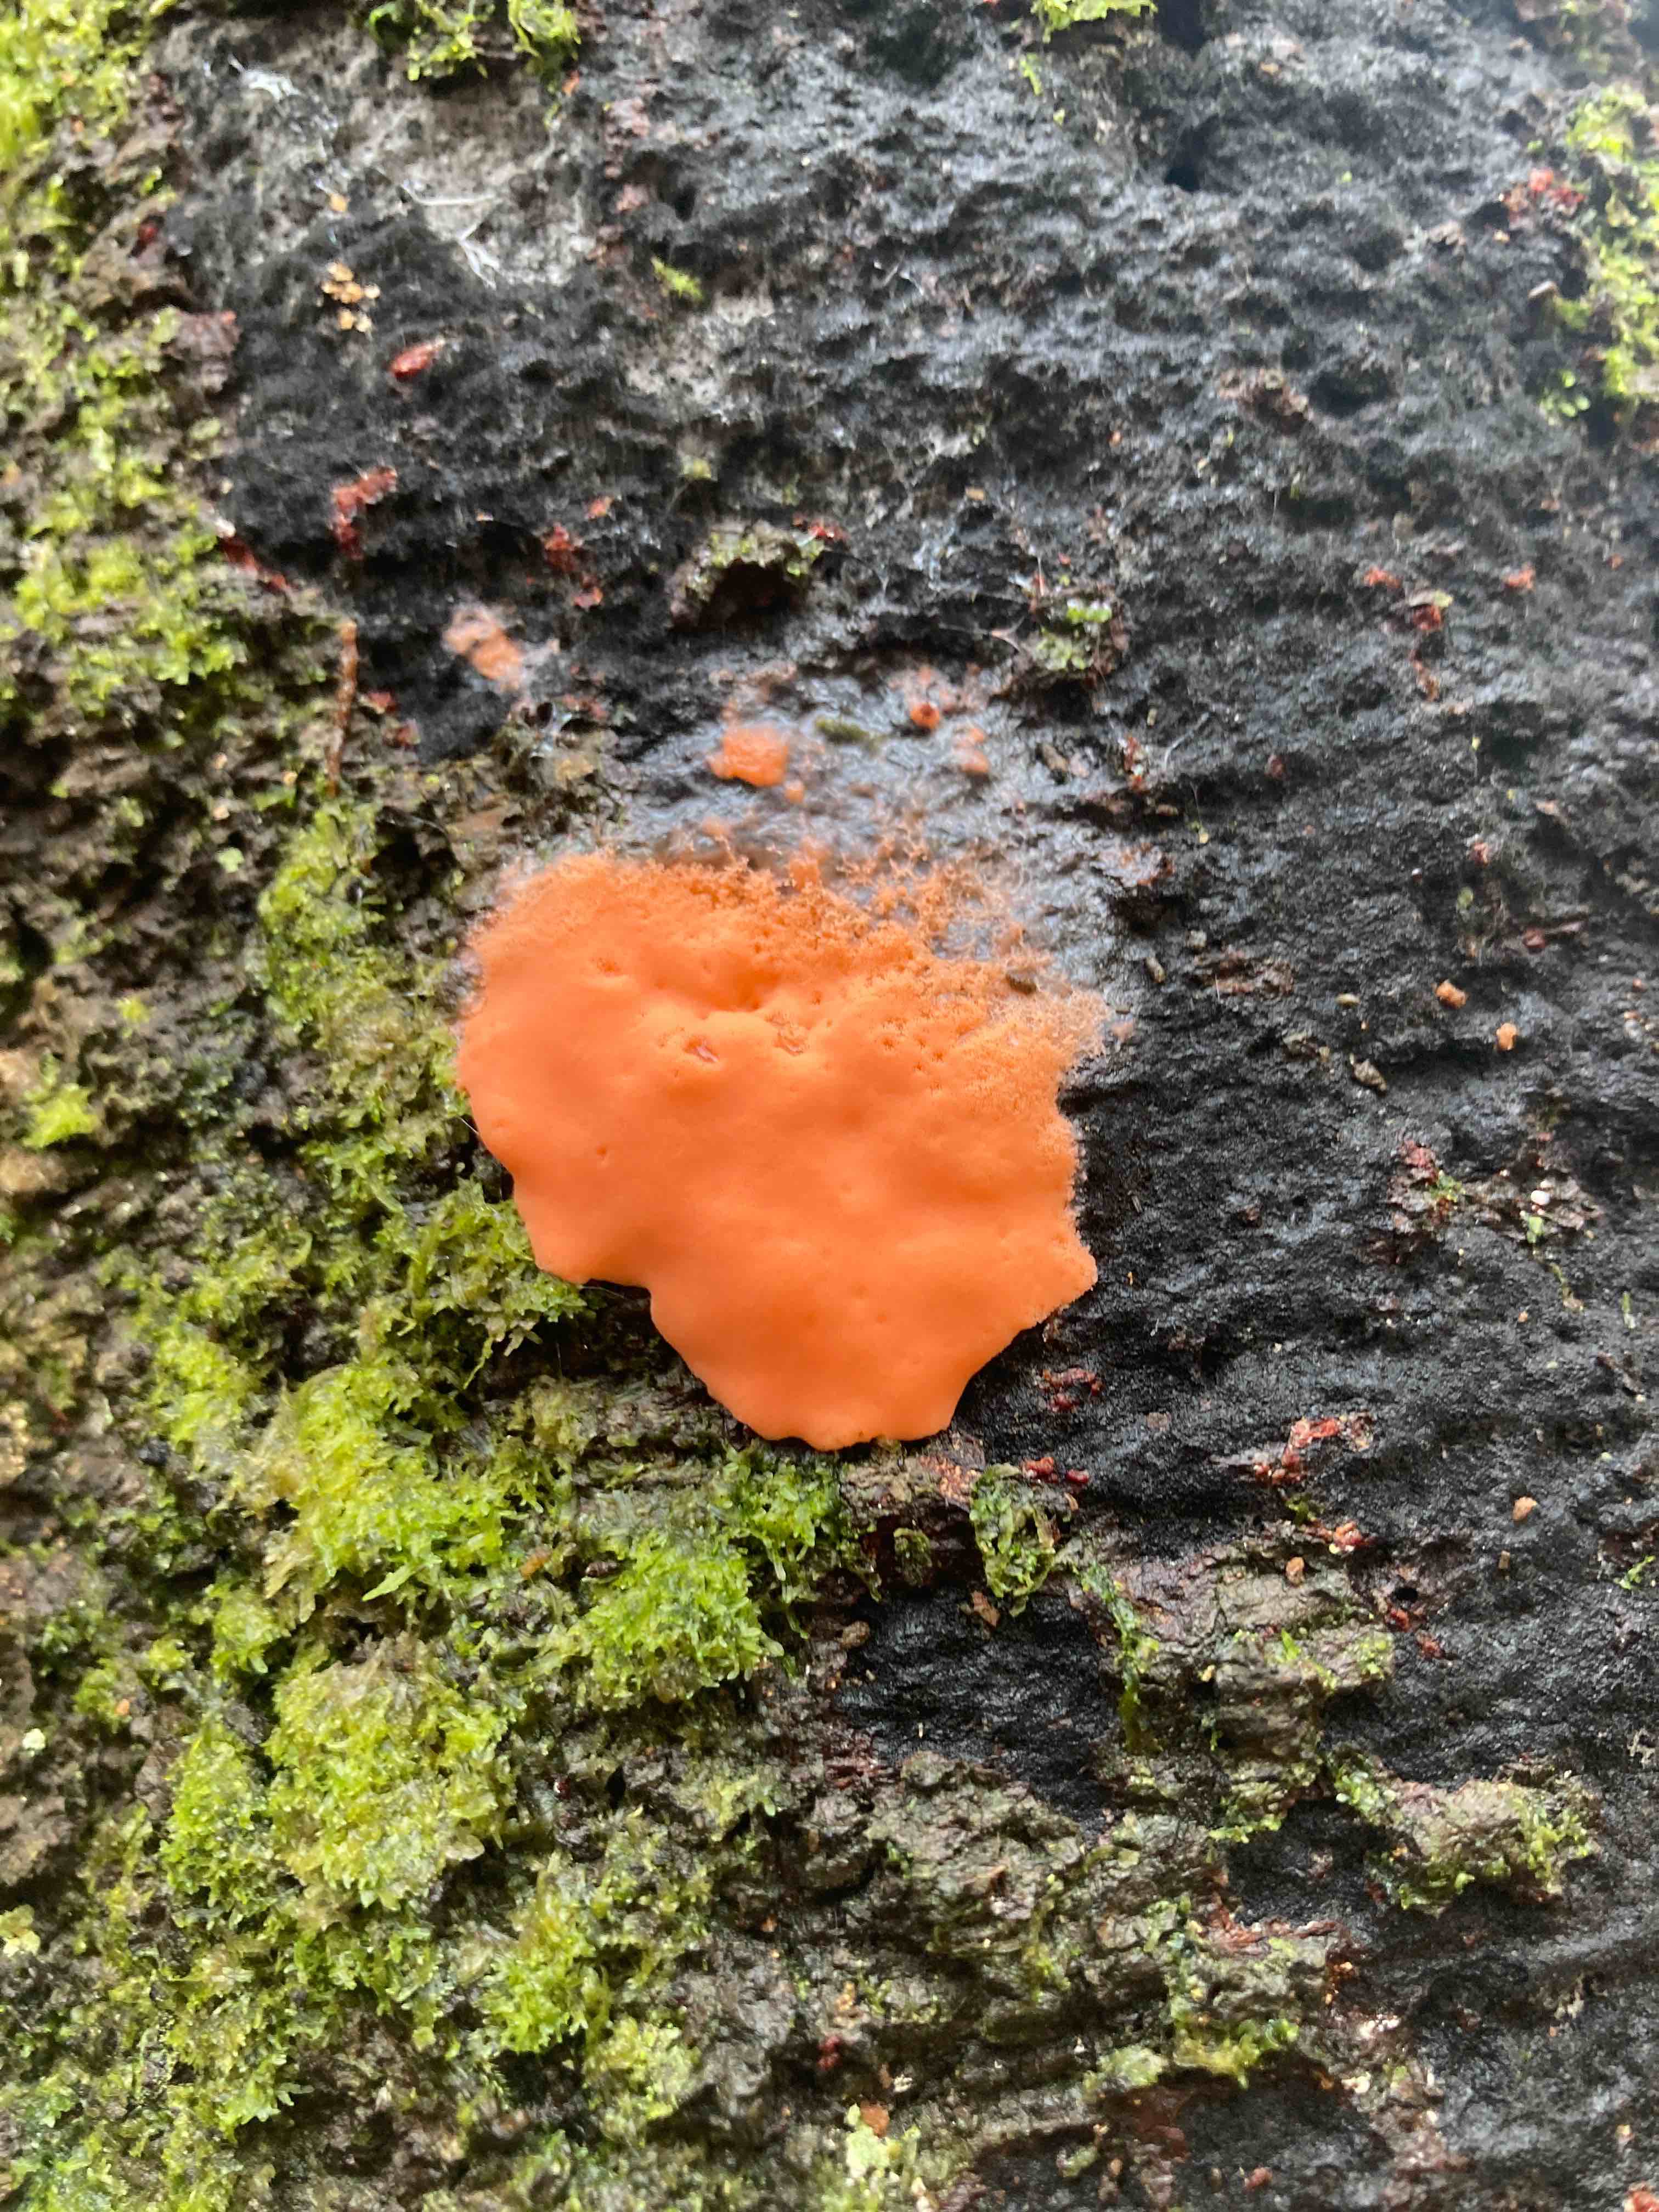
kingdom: Protozoa
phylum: Mycetozoa
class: Myxomycetes
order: Trichiales
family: Dictydiaethaliaceae
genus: Dictydiaethalium
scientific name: Dictydiaethalium plumbeum
